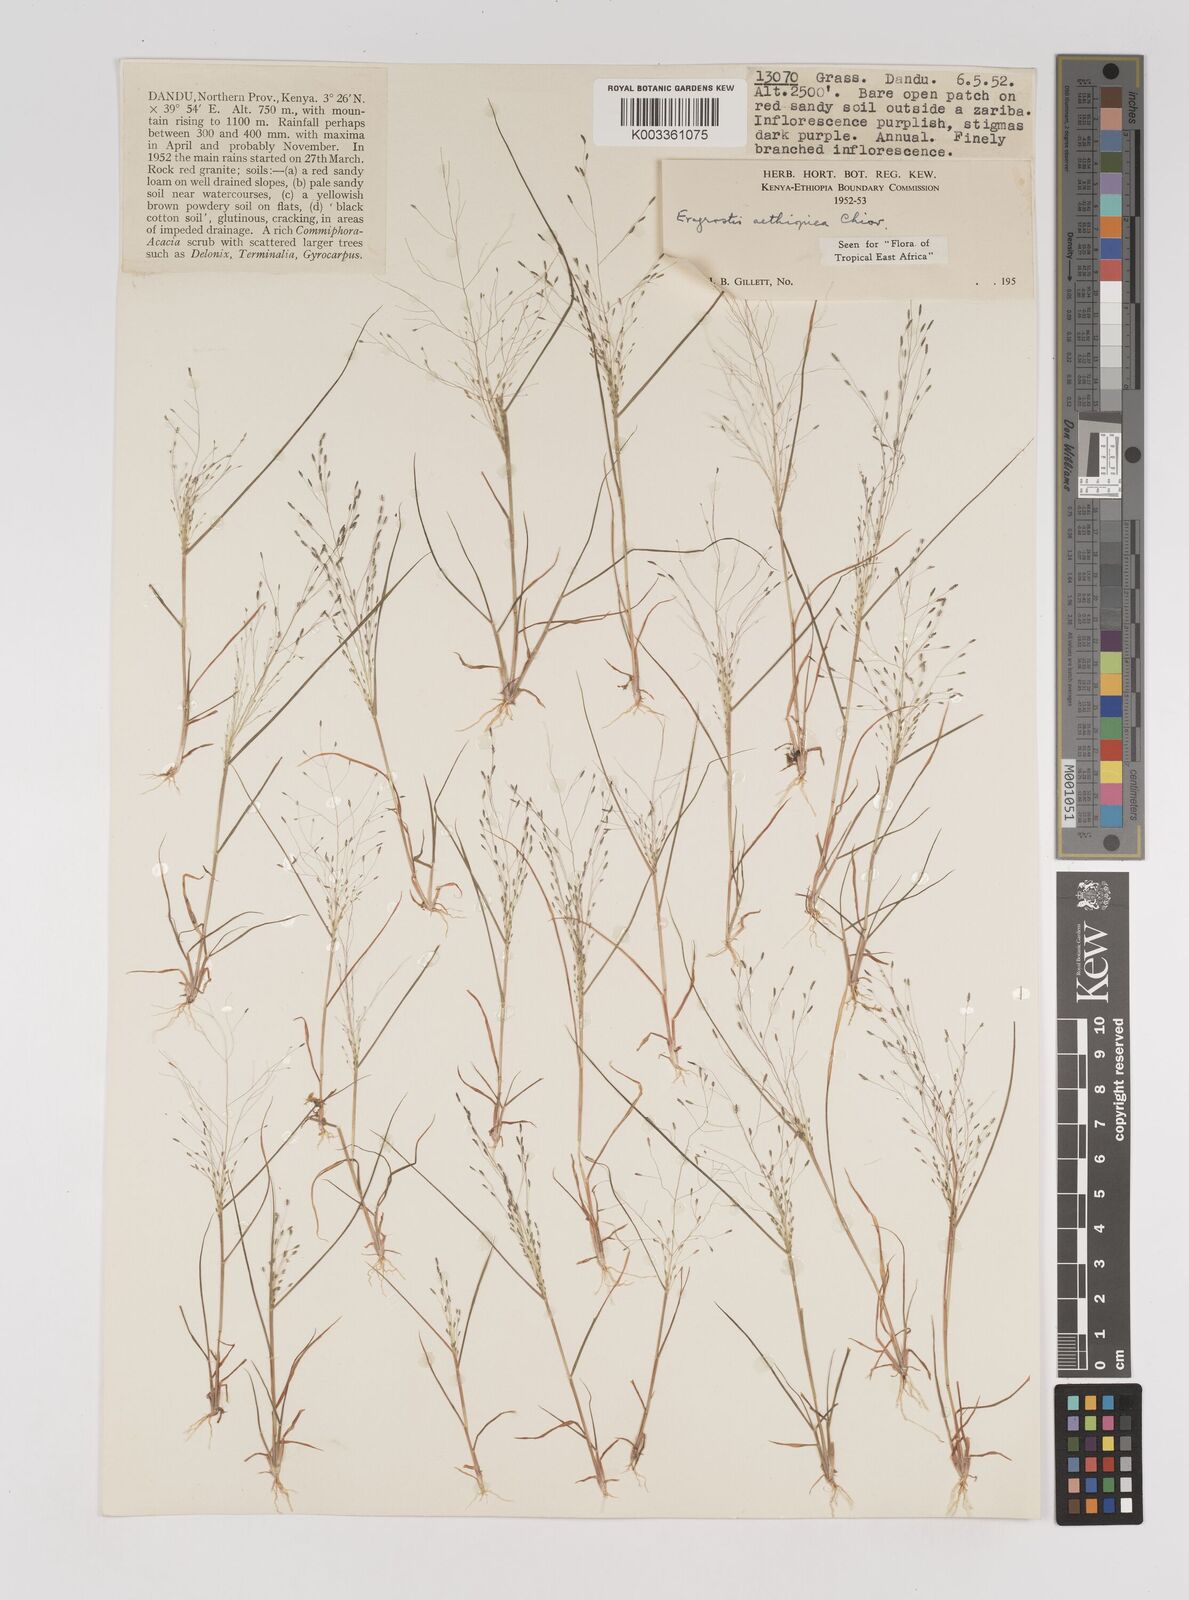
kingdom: Plantae
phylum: Tracheophyta
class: Liliopsida
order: Poales
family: Poaceae
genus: Eragrostis
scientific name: Eragrostis aethiopica
